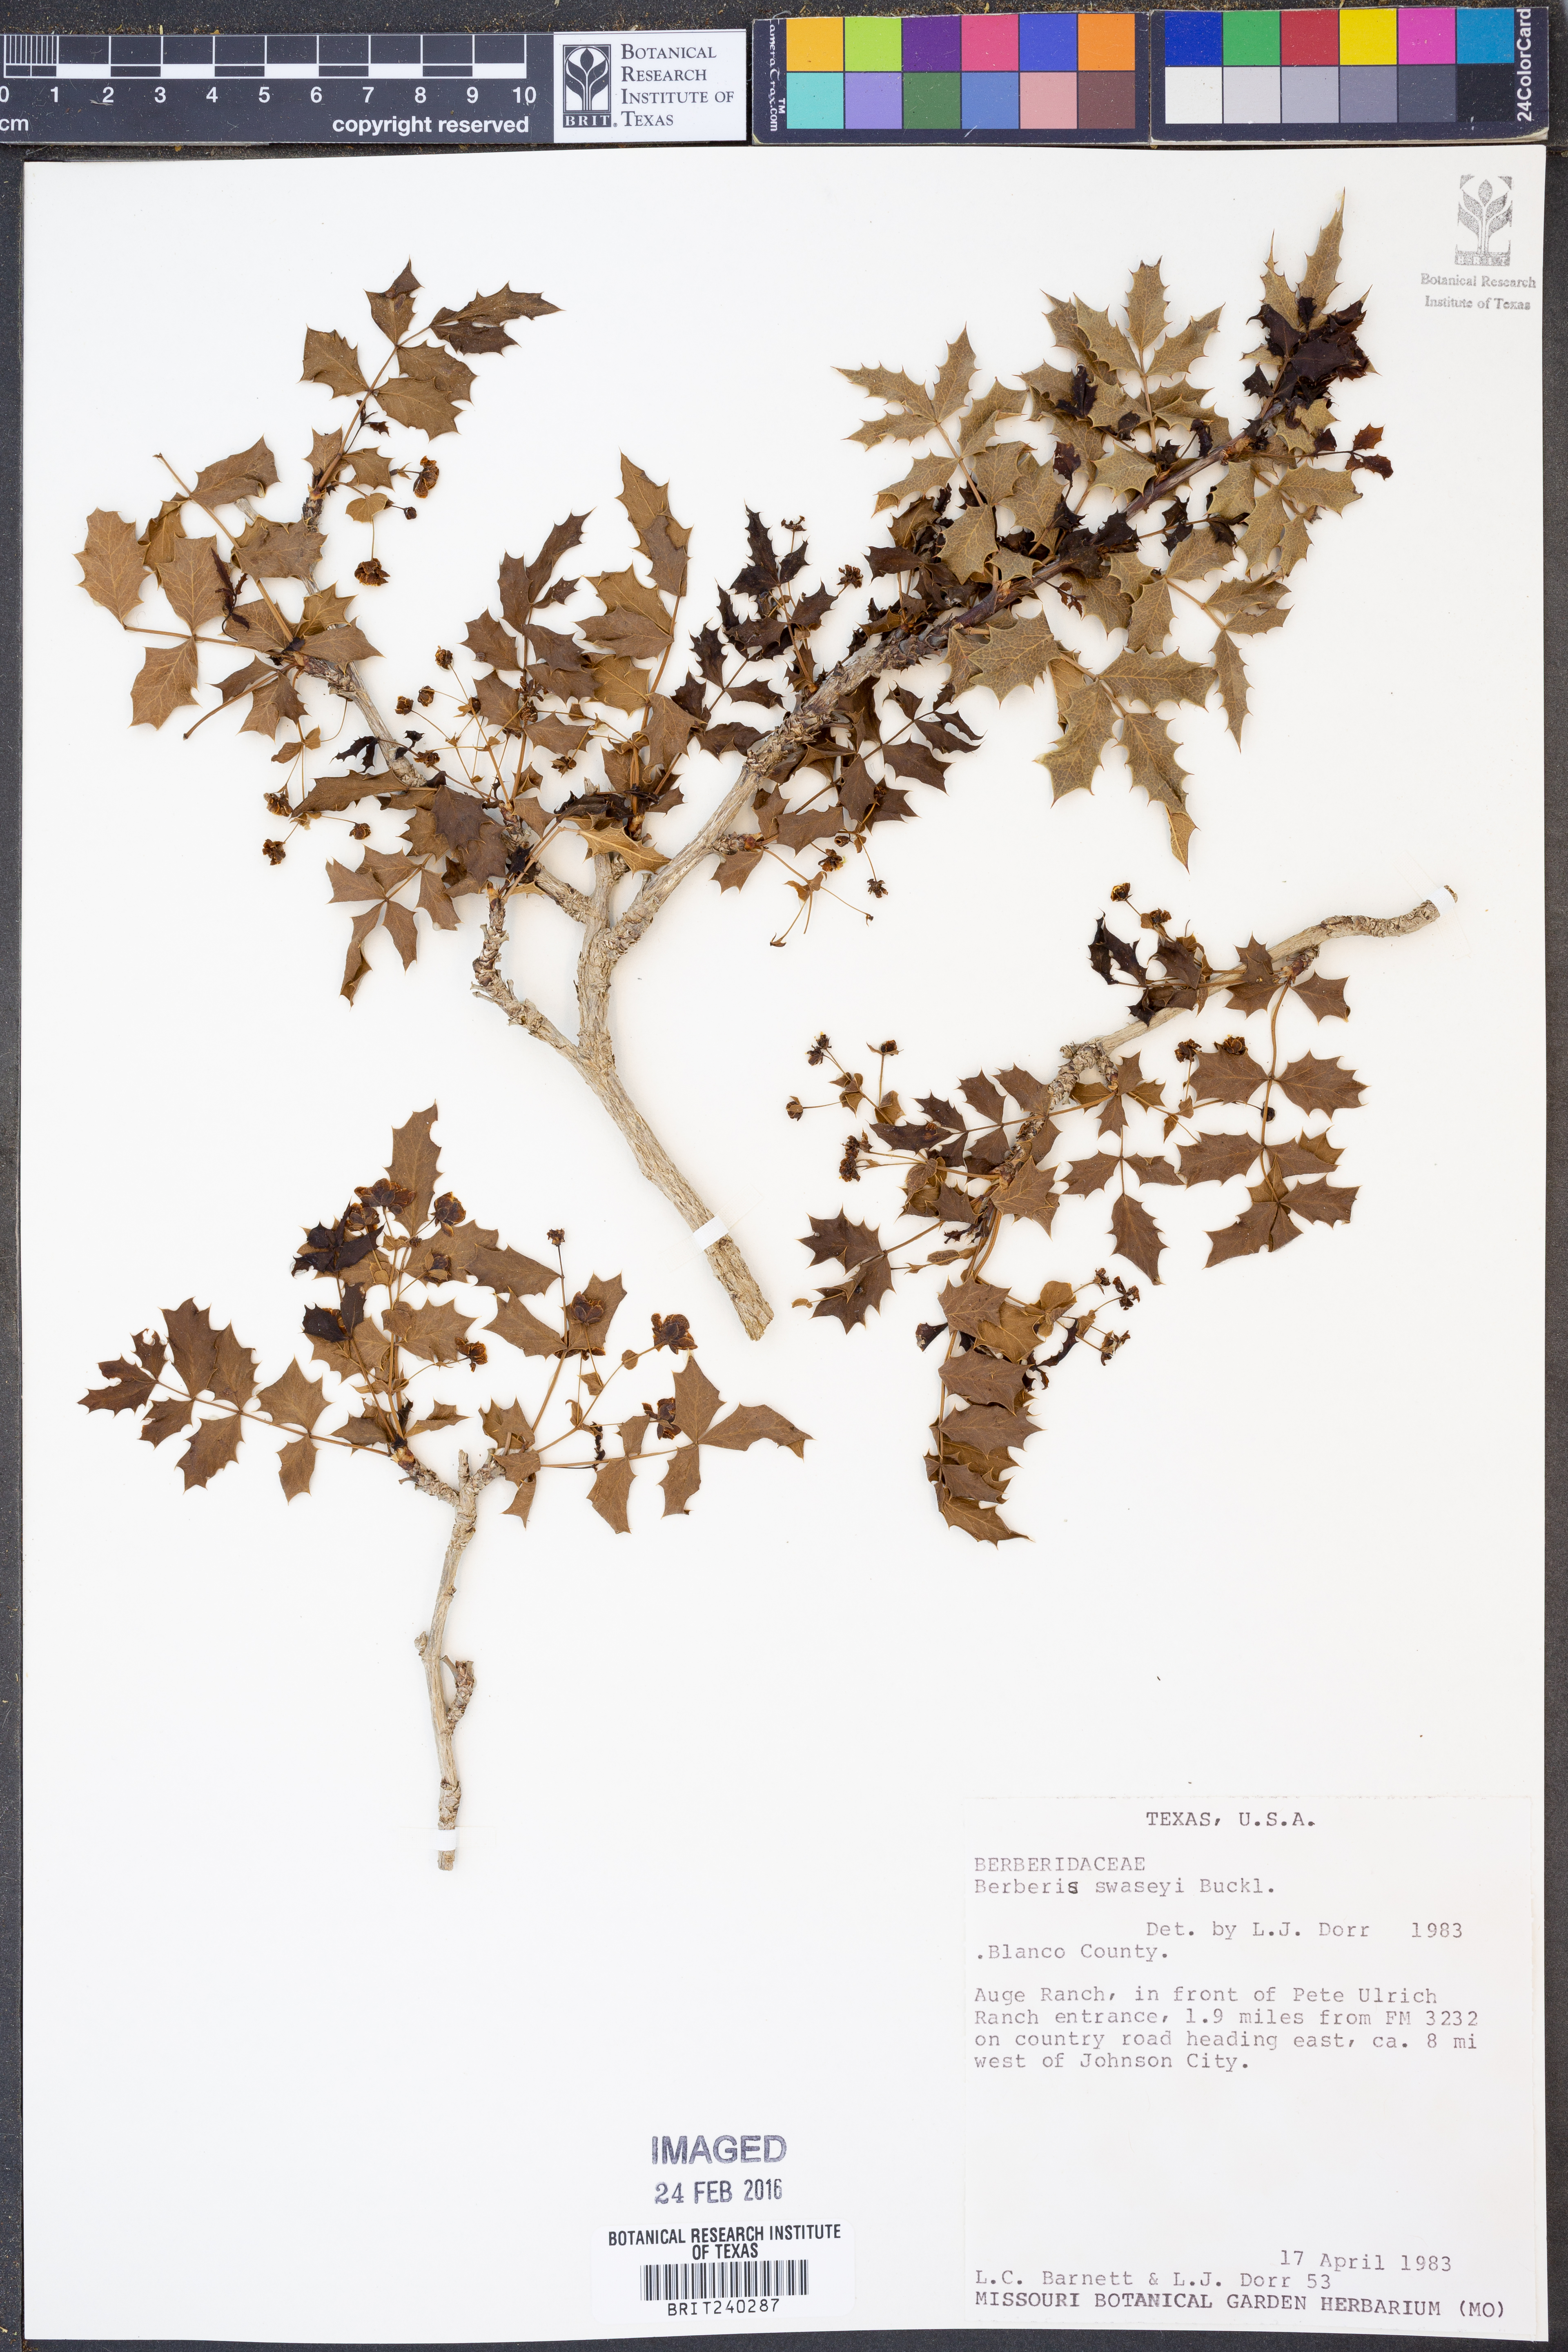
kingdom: Plantae
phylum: Tracheophyta
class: Magnoliopsida
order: Ranunculales
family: Berberidaceae
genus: Berberis
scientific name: Berberis swaseyi
